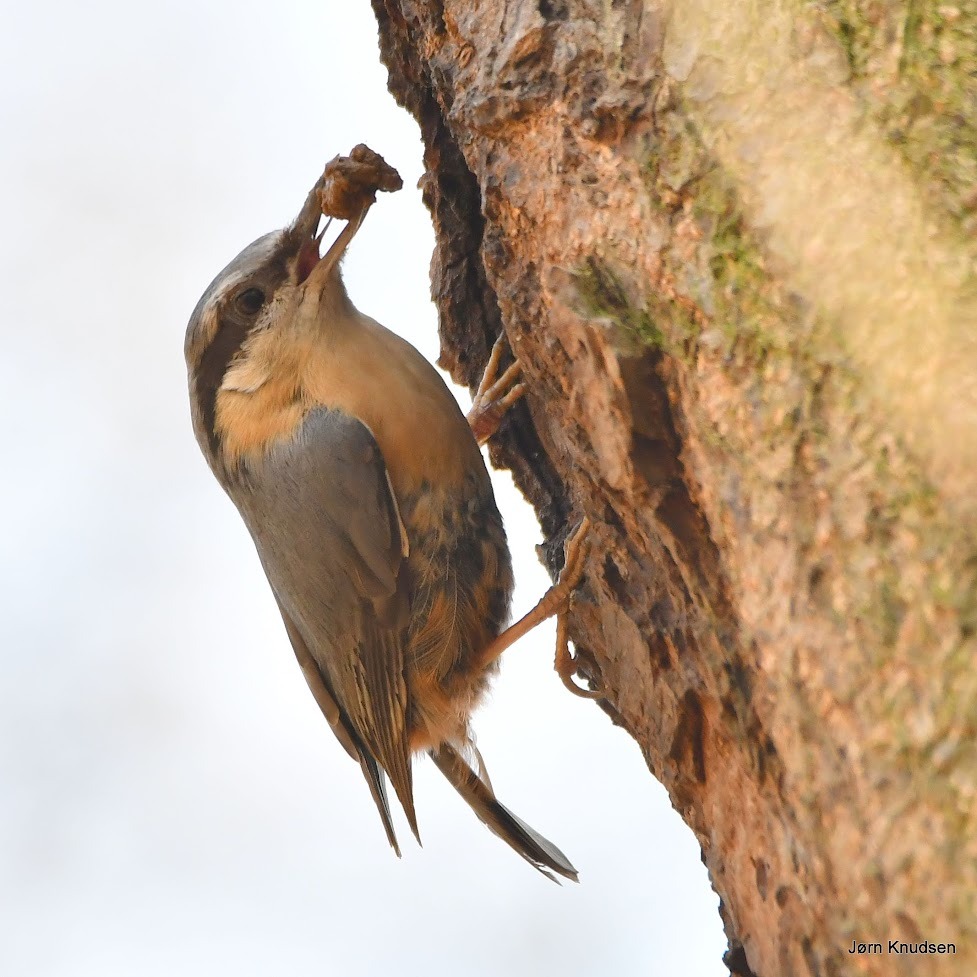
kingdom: Animalia
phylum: Chordata
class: Aves
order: Passeriformes
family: Sittidae
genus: Sitta
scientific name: Sitta europaea
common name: Spætmejse
